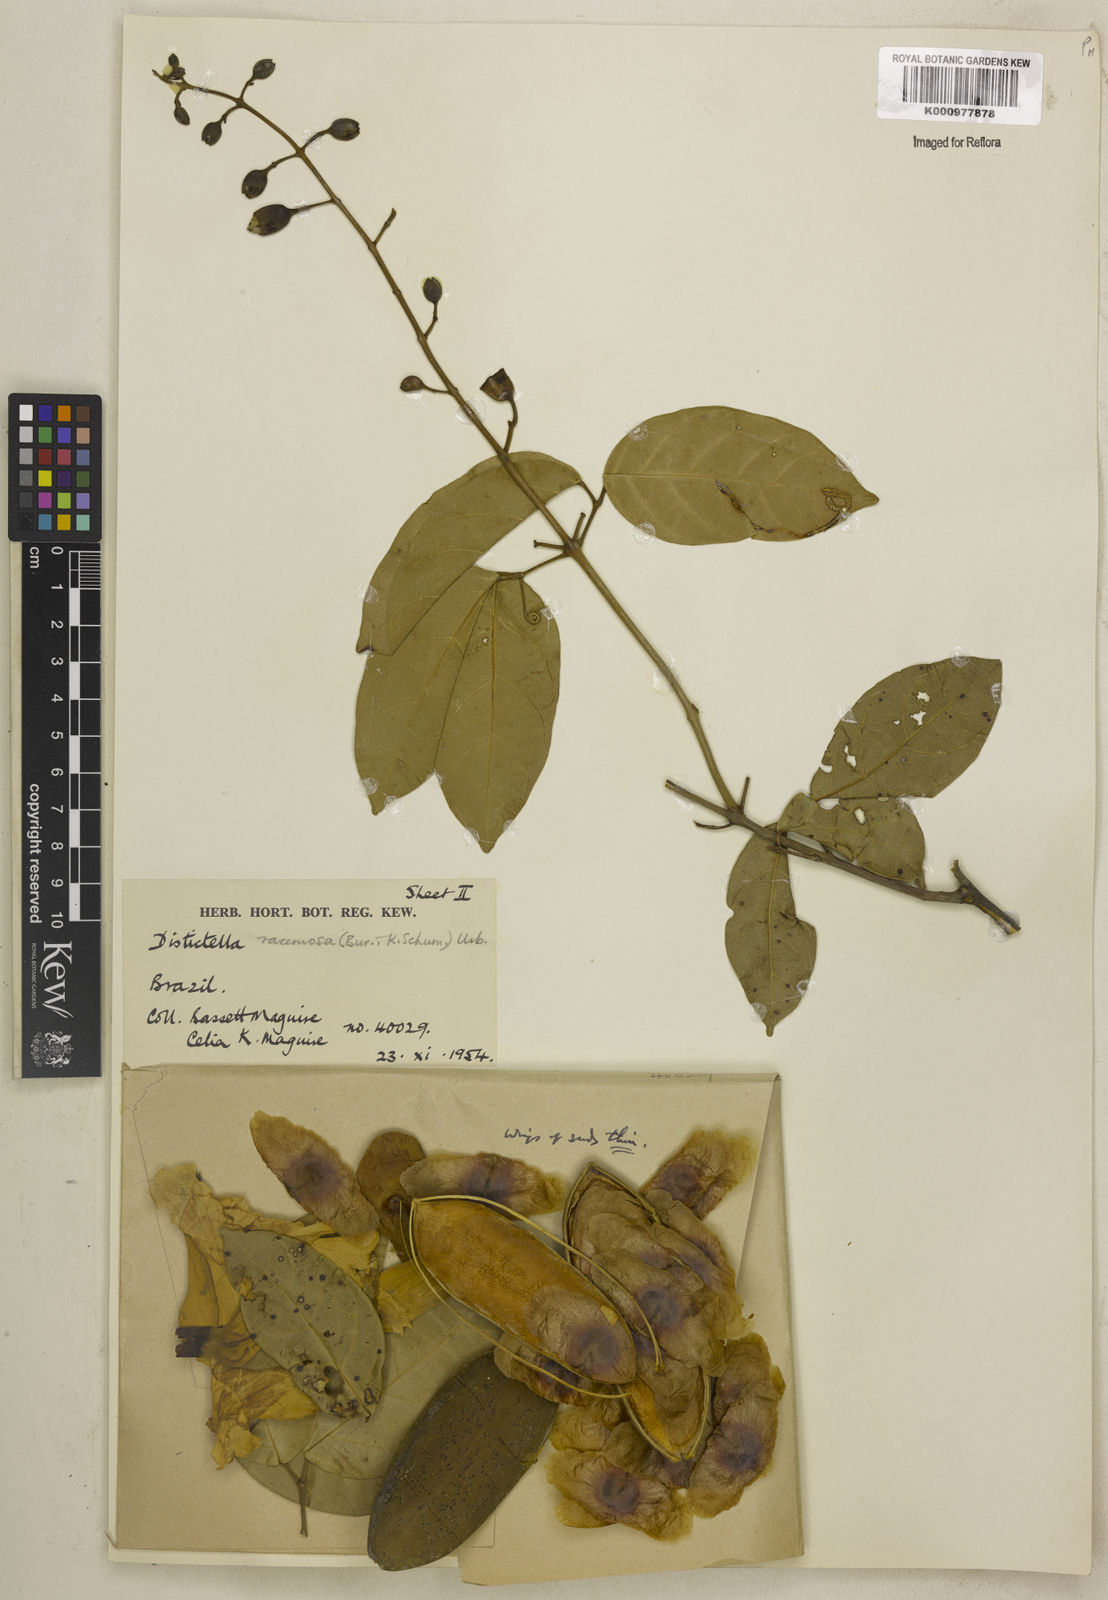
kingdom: Plantae
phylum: Tracheophyta
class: Magnoliopsida
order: Lamiales
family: Bignoniaceae
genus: Amphilophium
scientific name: Amphilophium racemosum
